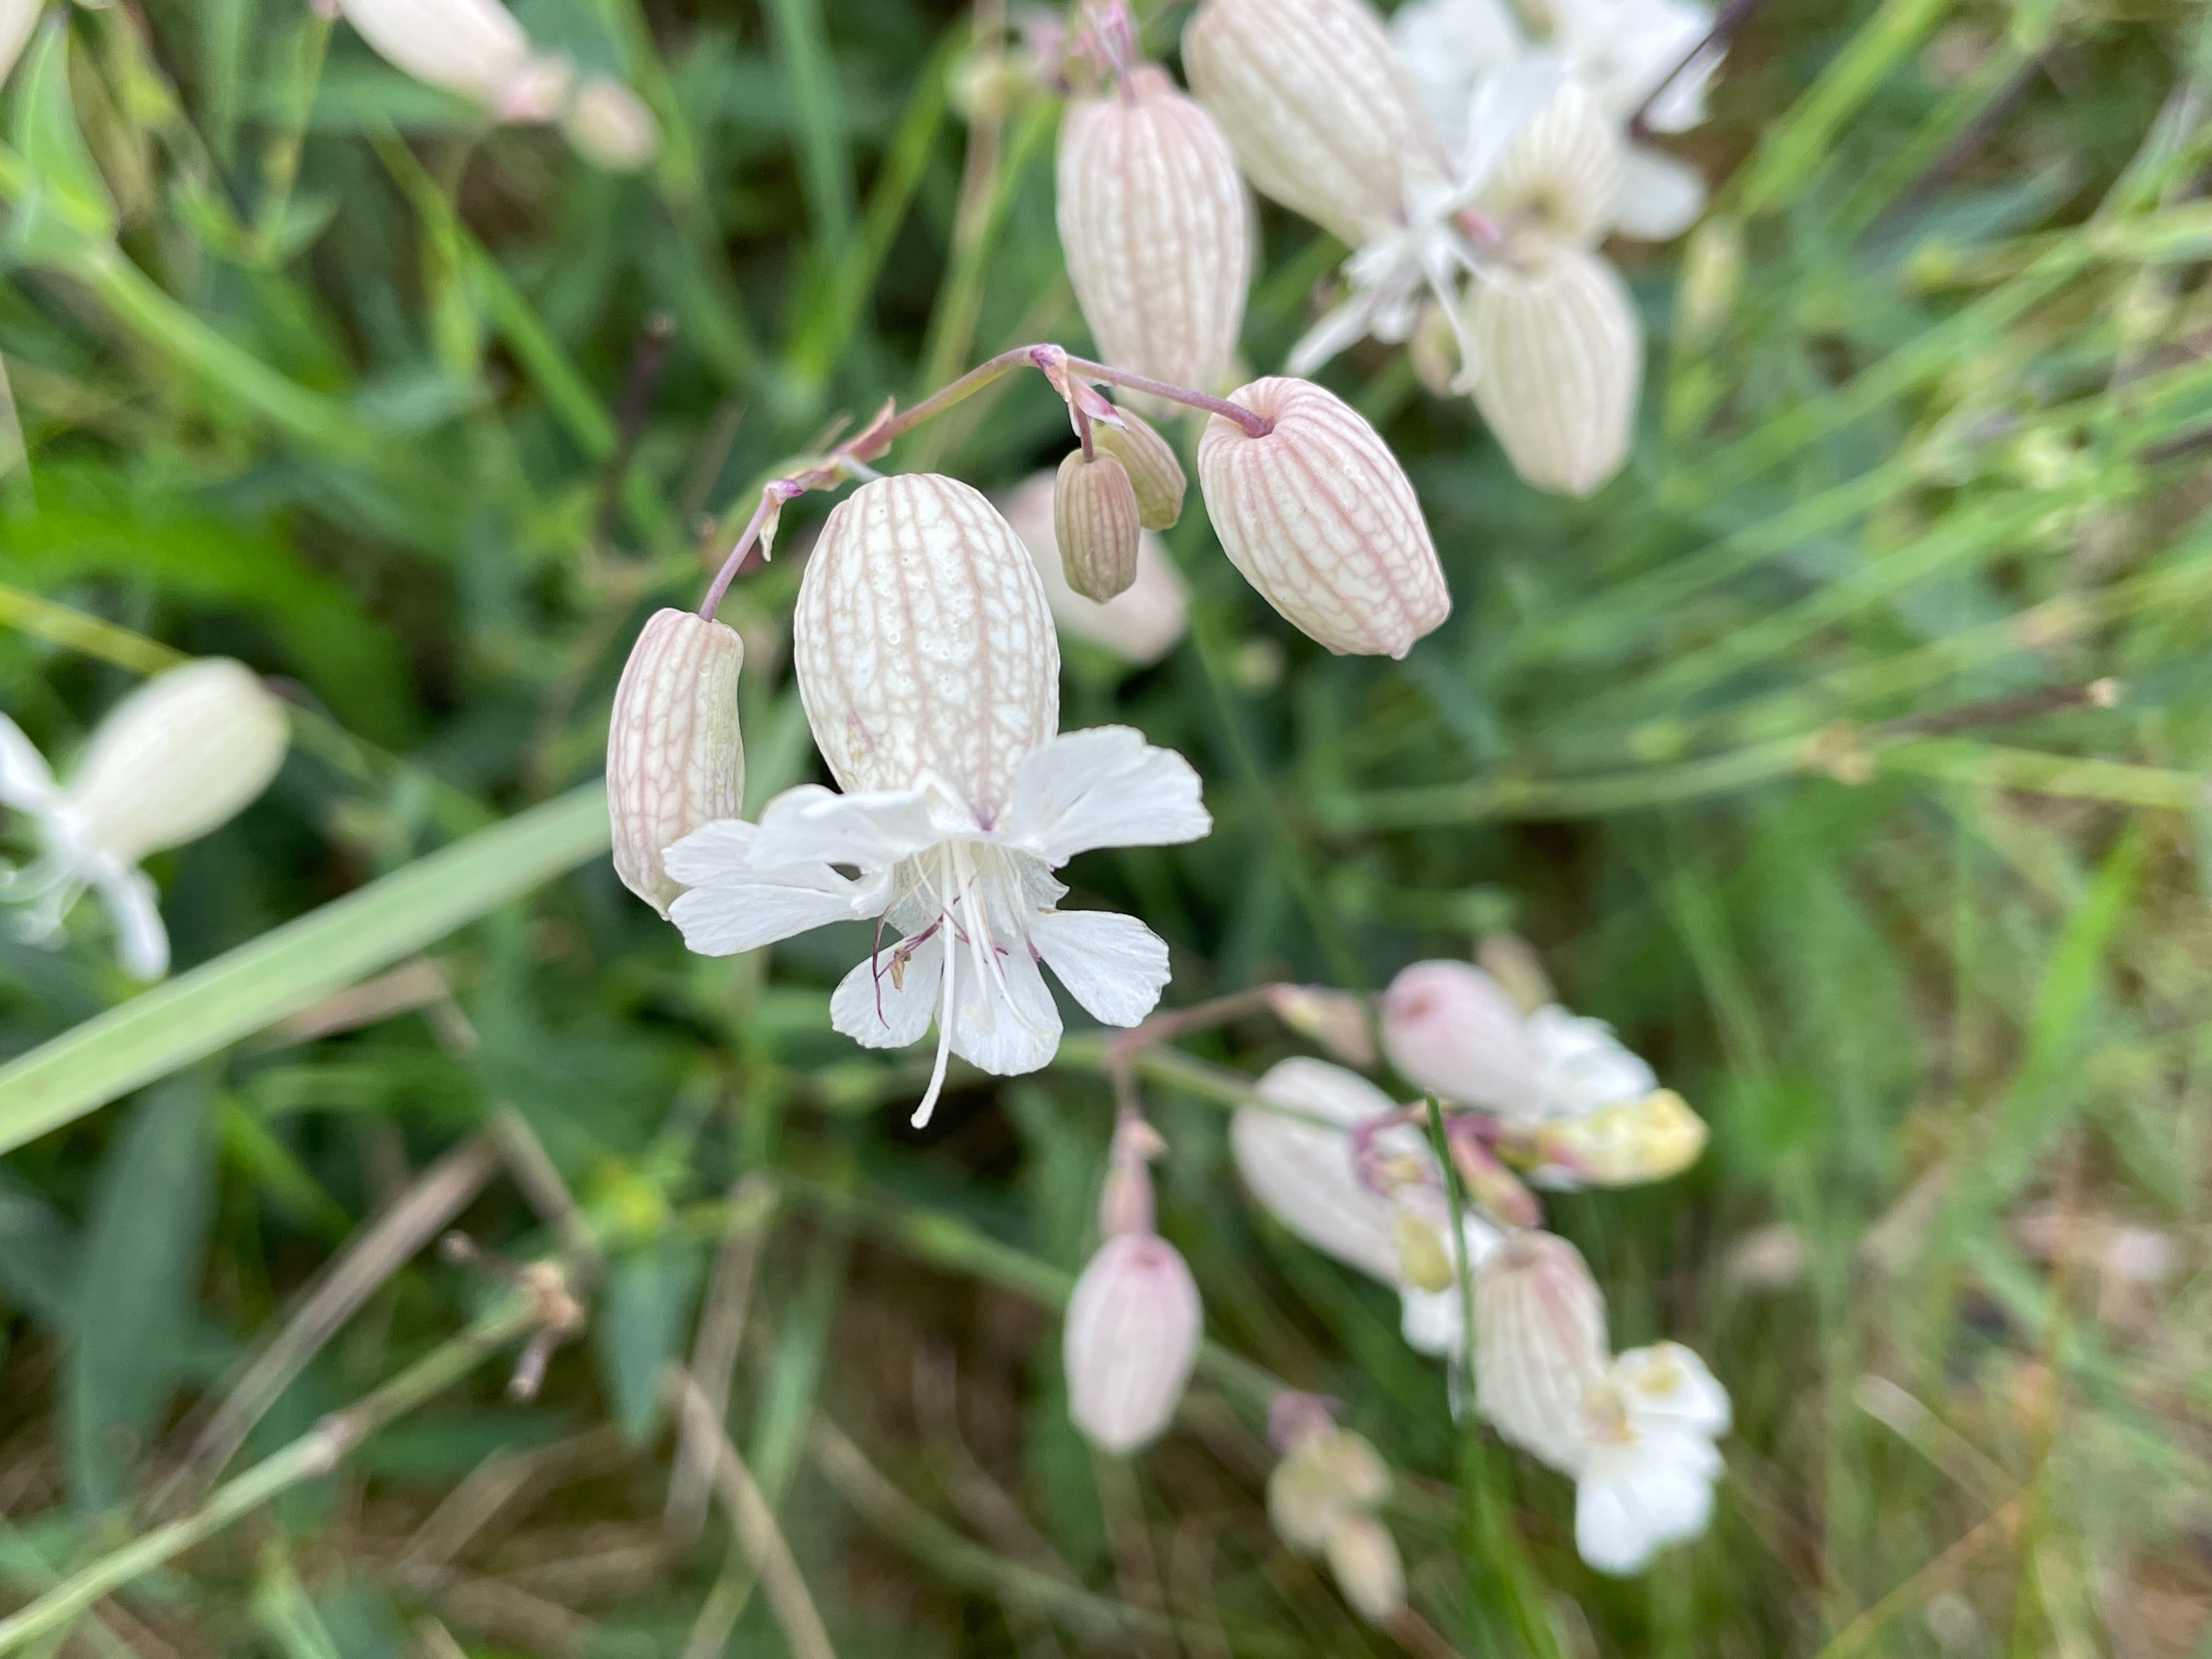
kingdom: Plantae
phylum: Tracheophyta
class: Magnoliopsida
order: Caryophyllales
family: Caryophyllaceae
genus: Silene
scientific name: Silene vulgaris
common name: Blæresmælde
